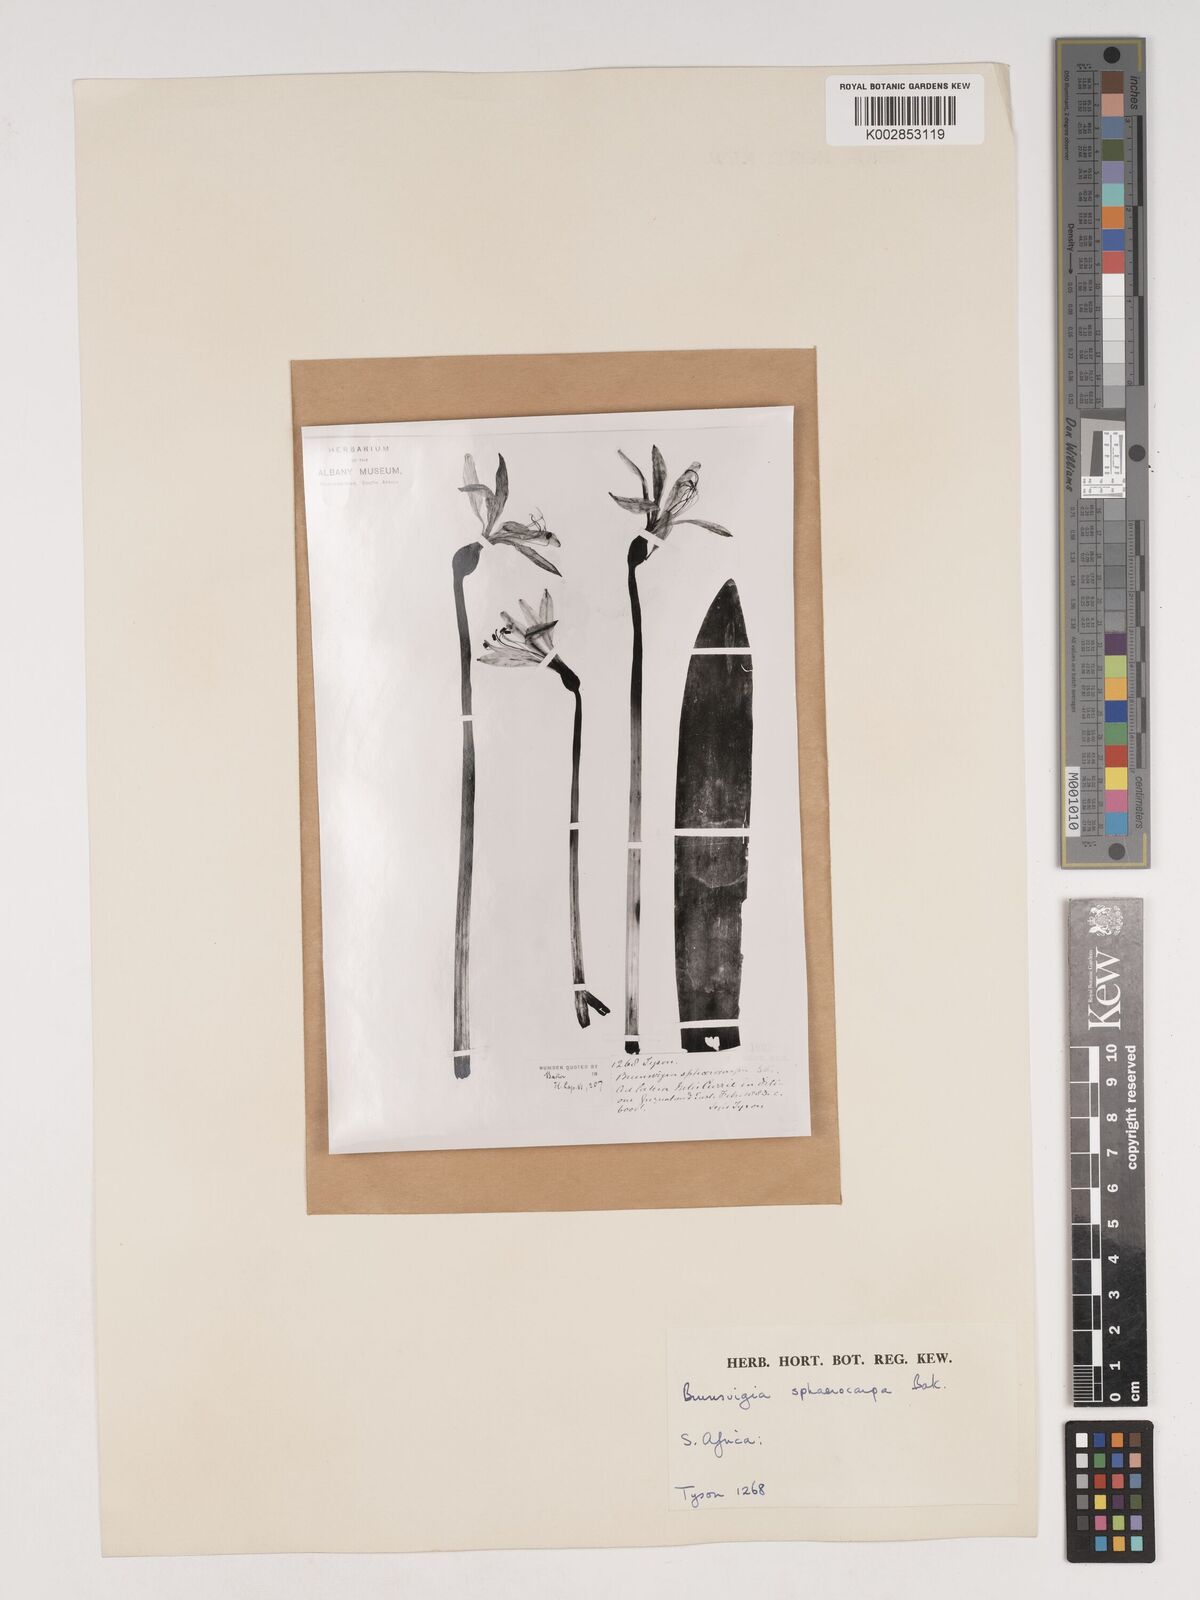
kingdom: Plantae
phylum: Tracheophyta
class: Liliopsida
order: Asparagales
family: Amaryllidaceae
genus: Brunsvigia
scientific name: Brunsvigia grandiflora
